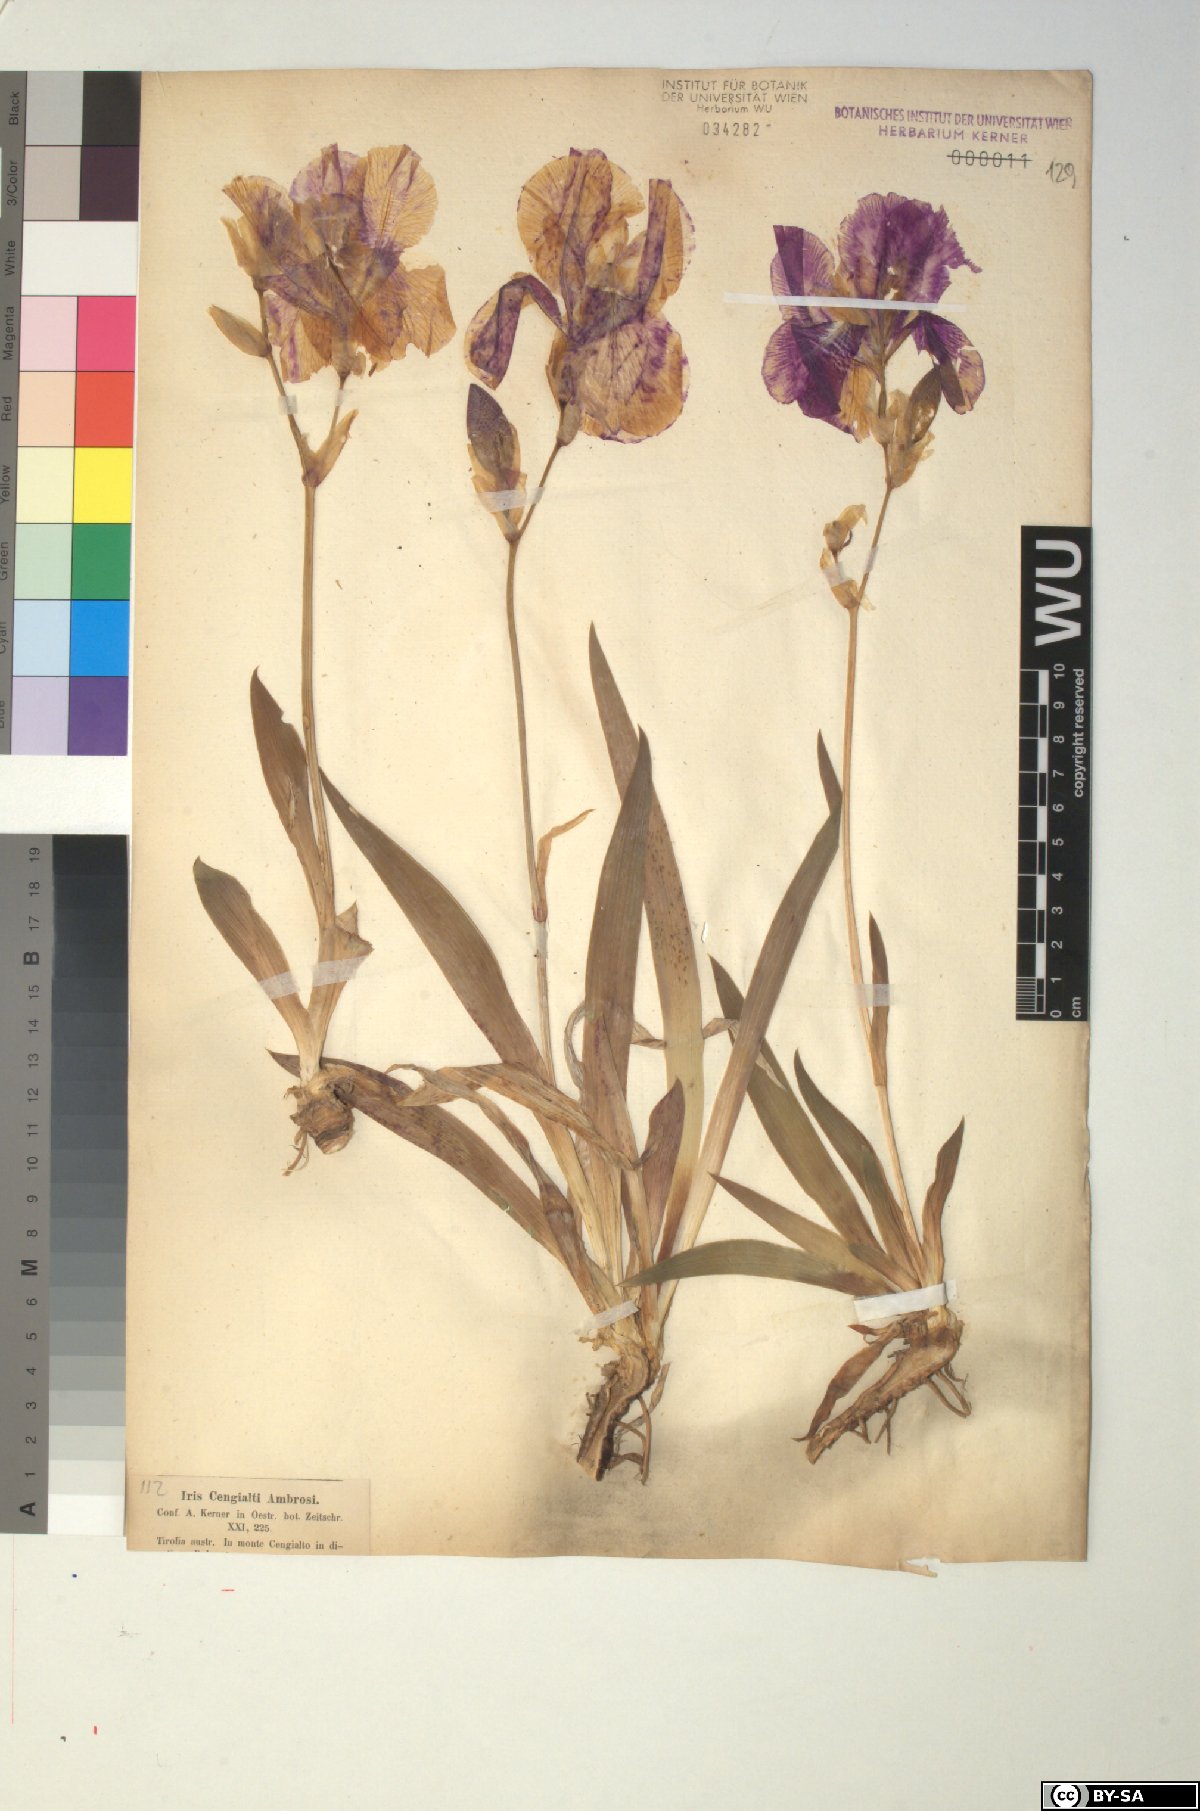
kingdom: Plantae
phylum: Tracheophyta
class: Liliopsida
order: Asparagales
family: Iridaceae
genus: Iris
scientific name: Iris pallida
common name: Sweet iris
